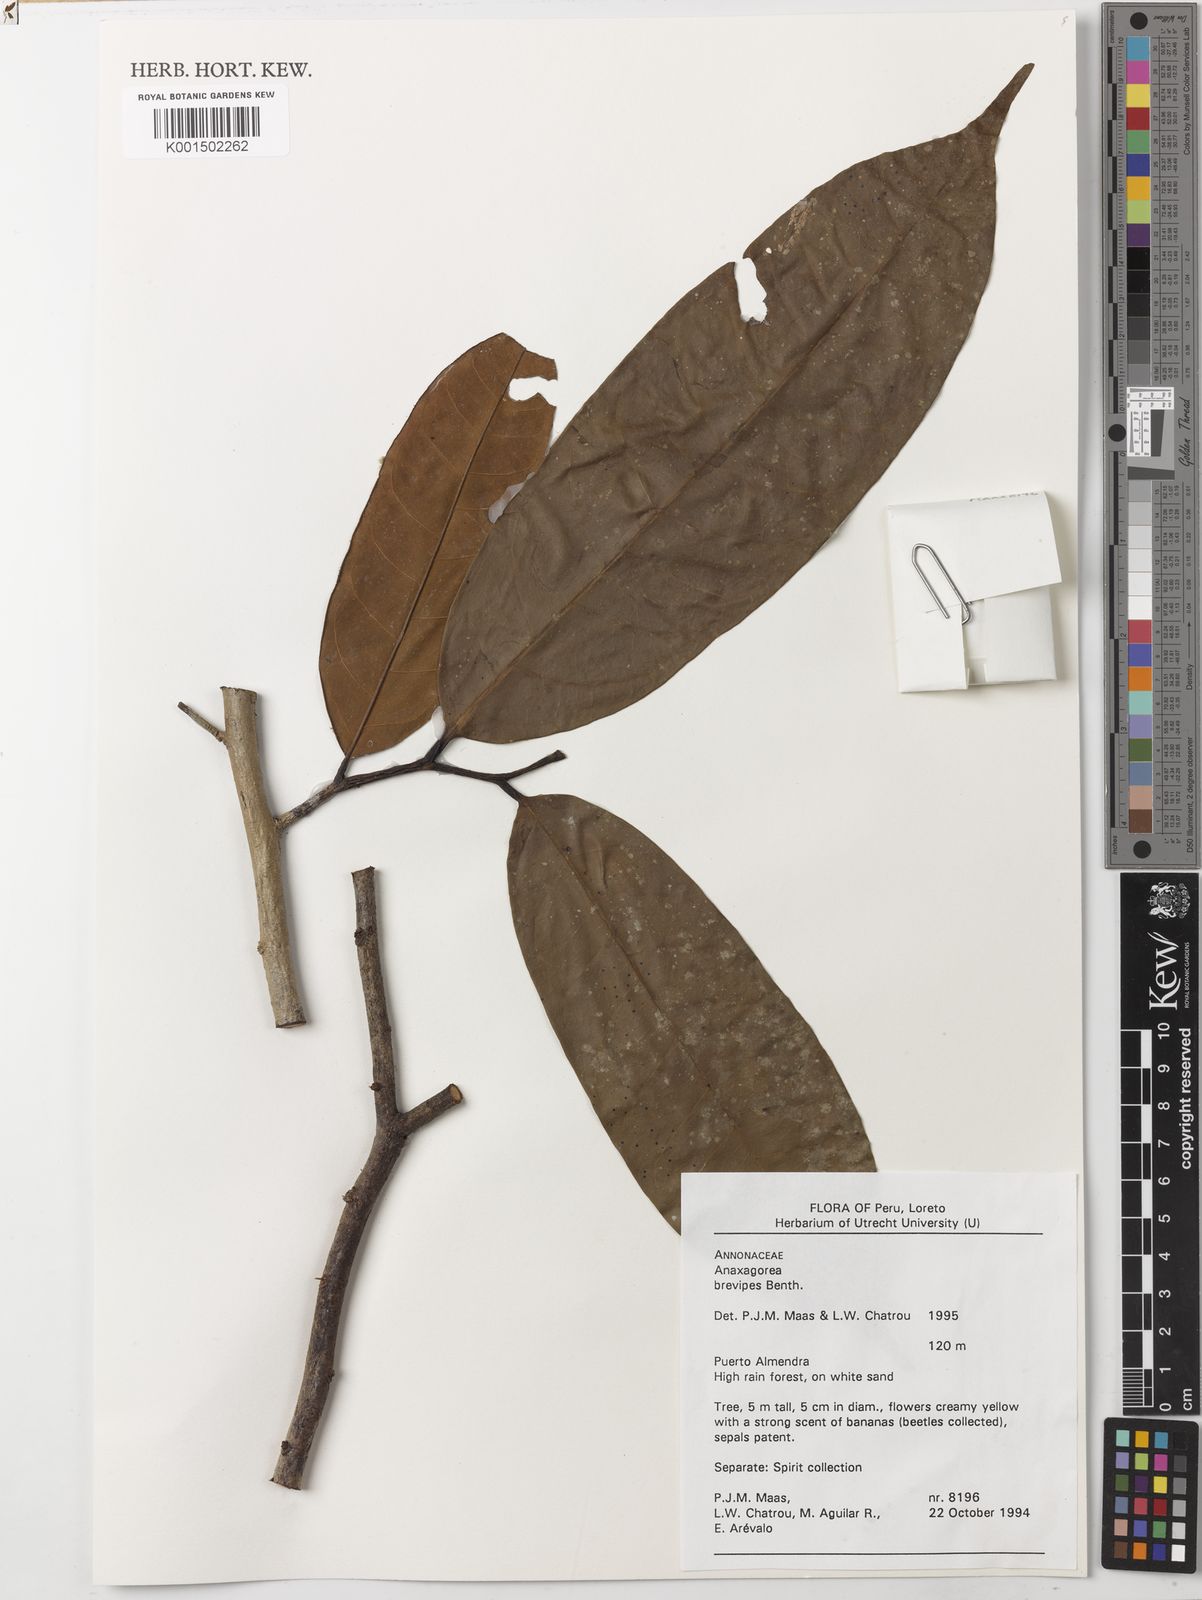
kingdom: Plantae
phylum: Tracheophyta
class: Magnoliopsida
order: Magnoliales
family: Annonaceae
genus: Anaxagorea
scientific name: Anaxagorea brevipes
